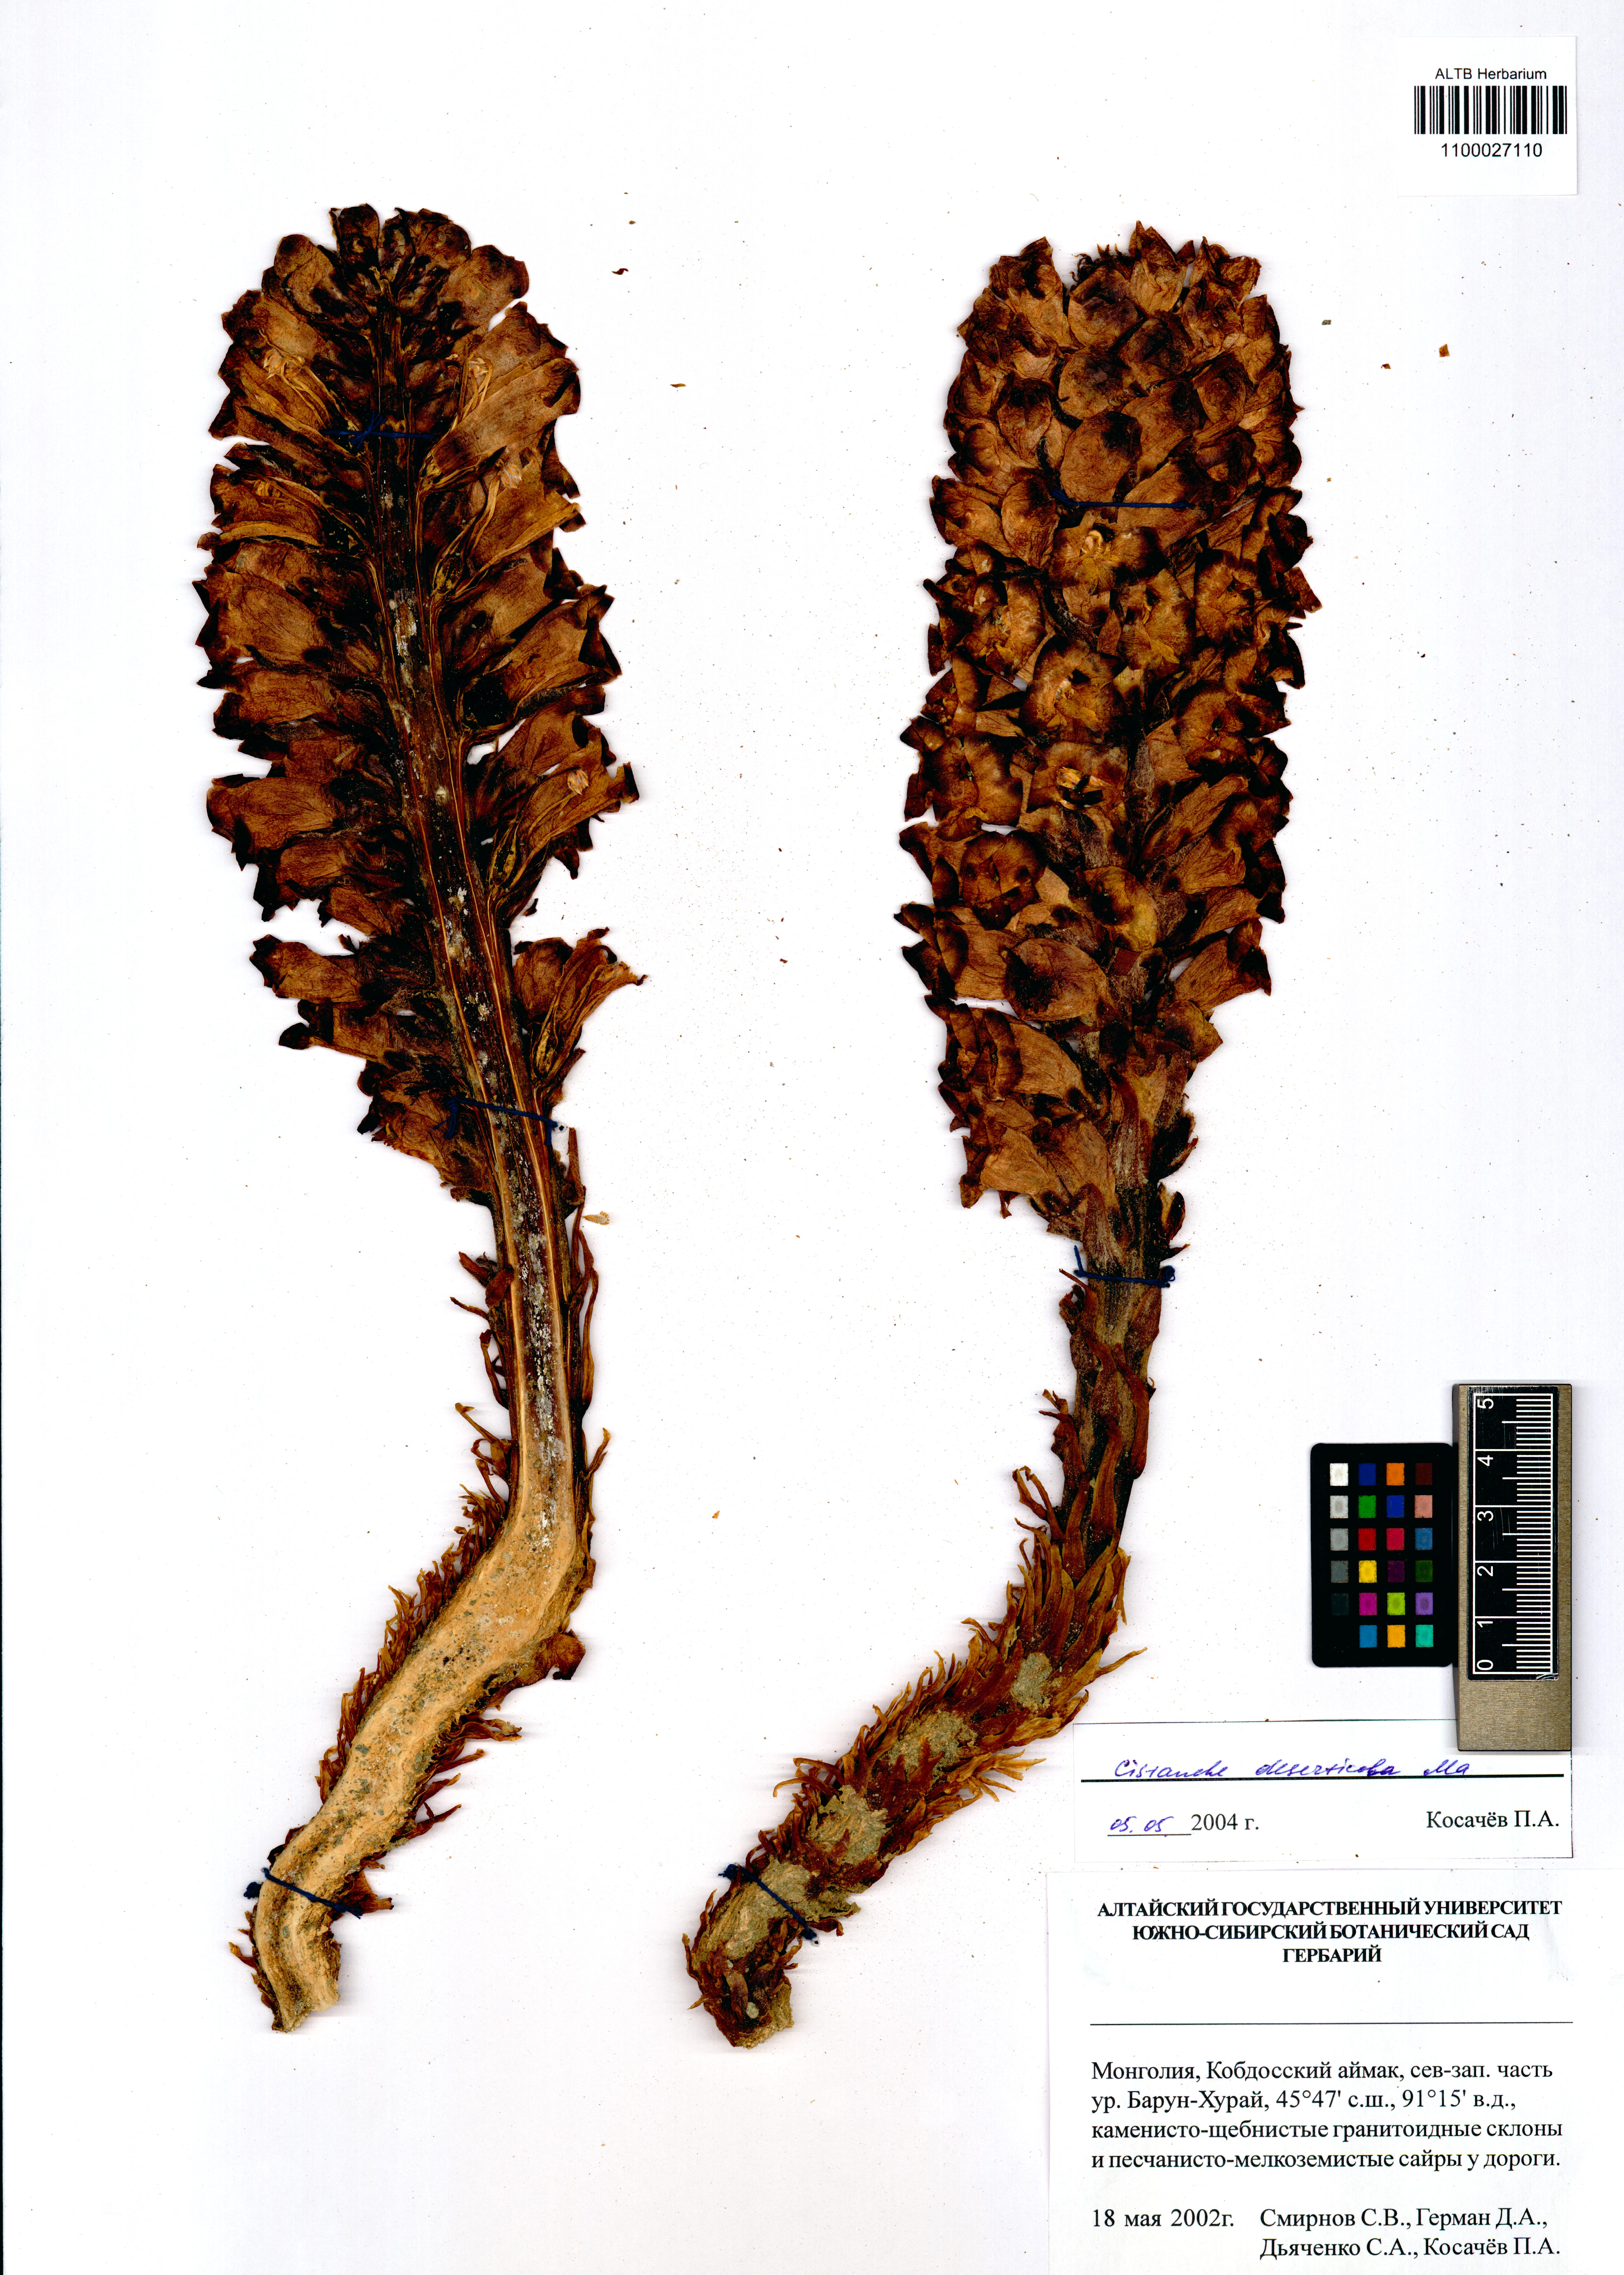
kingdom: Plantae
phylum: Tracheophyta
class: Magnoliopsida
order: Lamiales
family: Orobanchaceae
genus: Cistanche
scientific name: Cistanche deserticola
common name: Desert-broomrape
